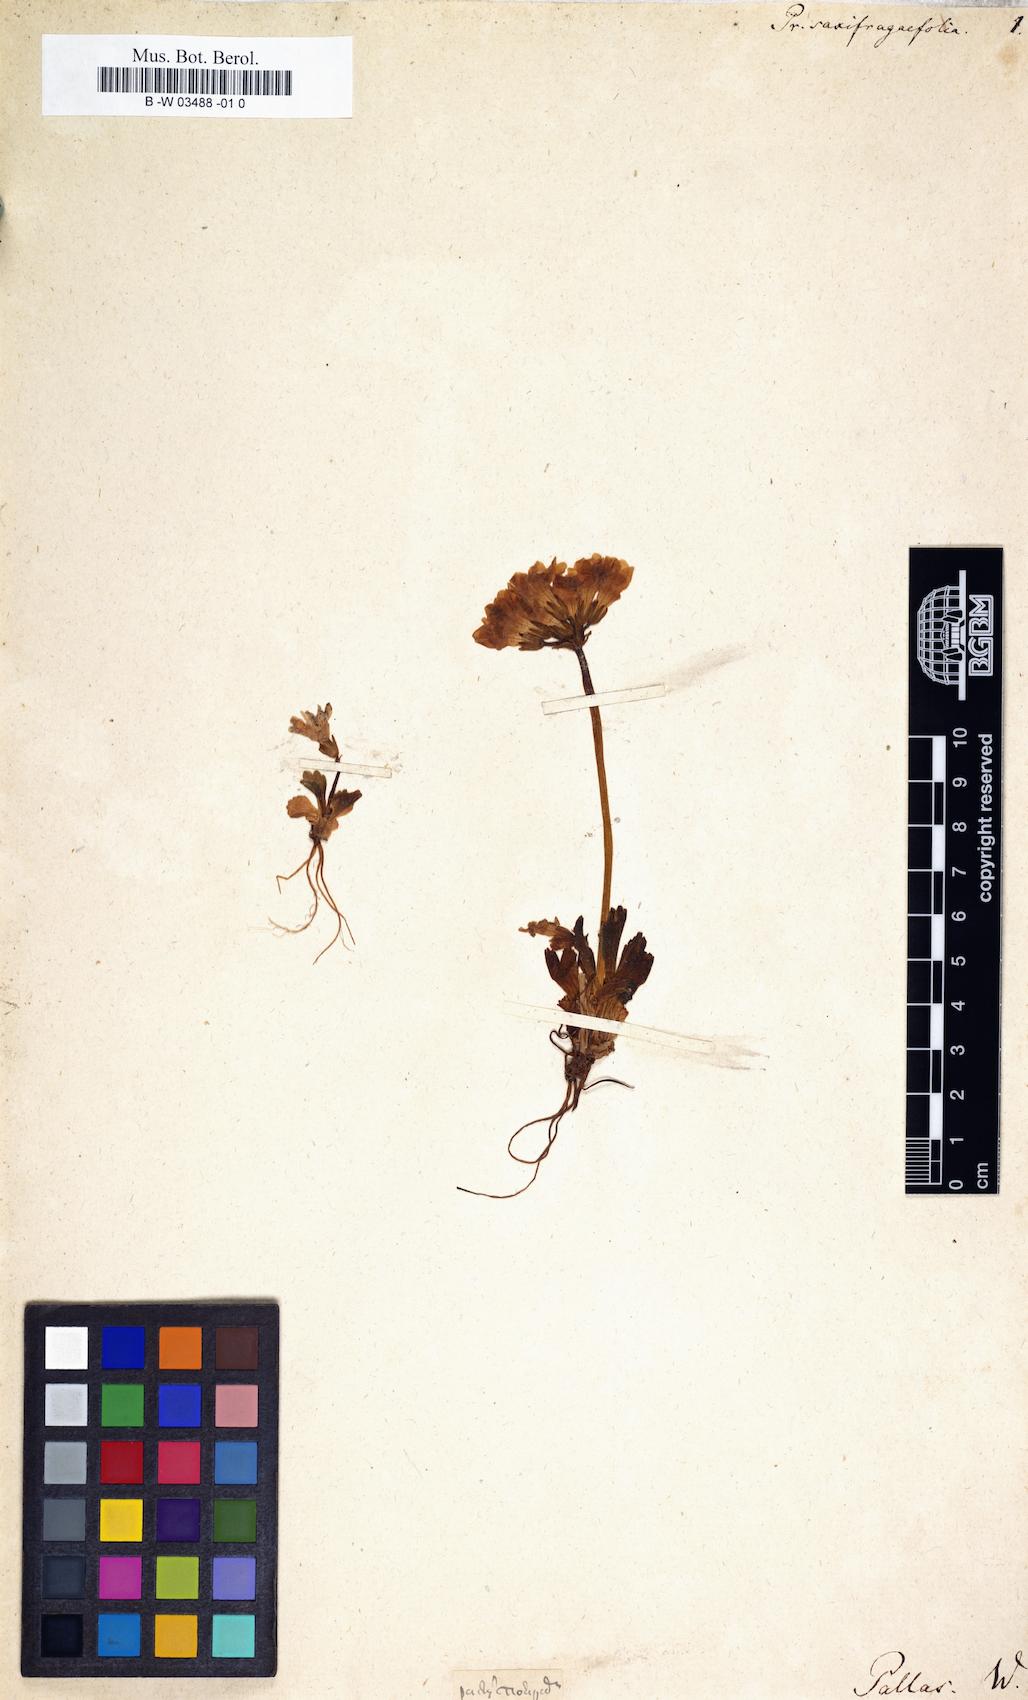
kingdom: Plantae
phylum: Tracheophyta
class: Magnoliopsida
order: Ericales
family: Primulaceae
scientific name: Primulaceae
